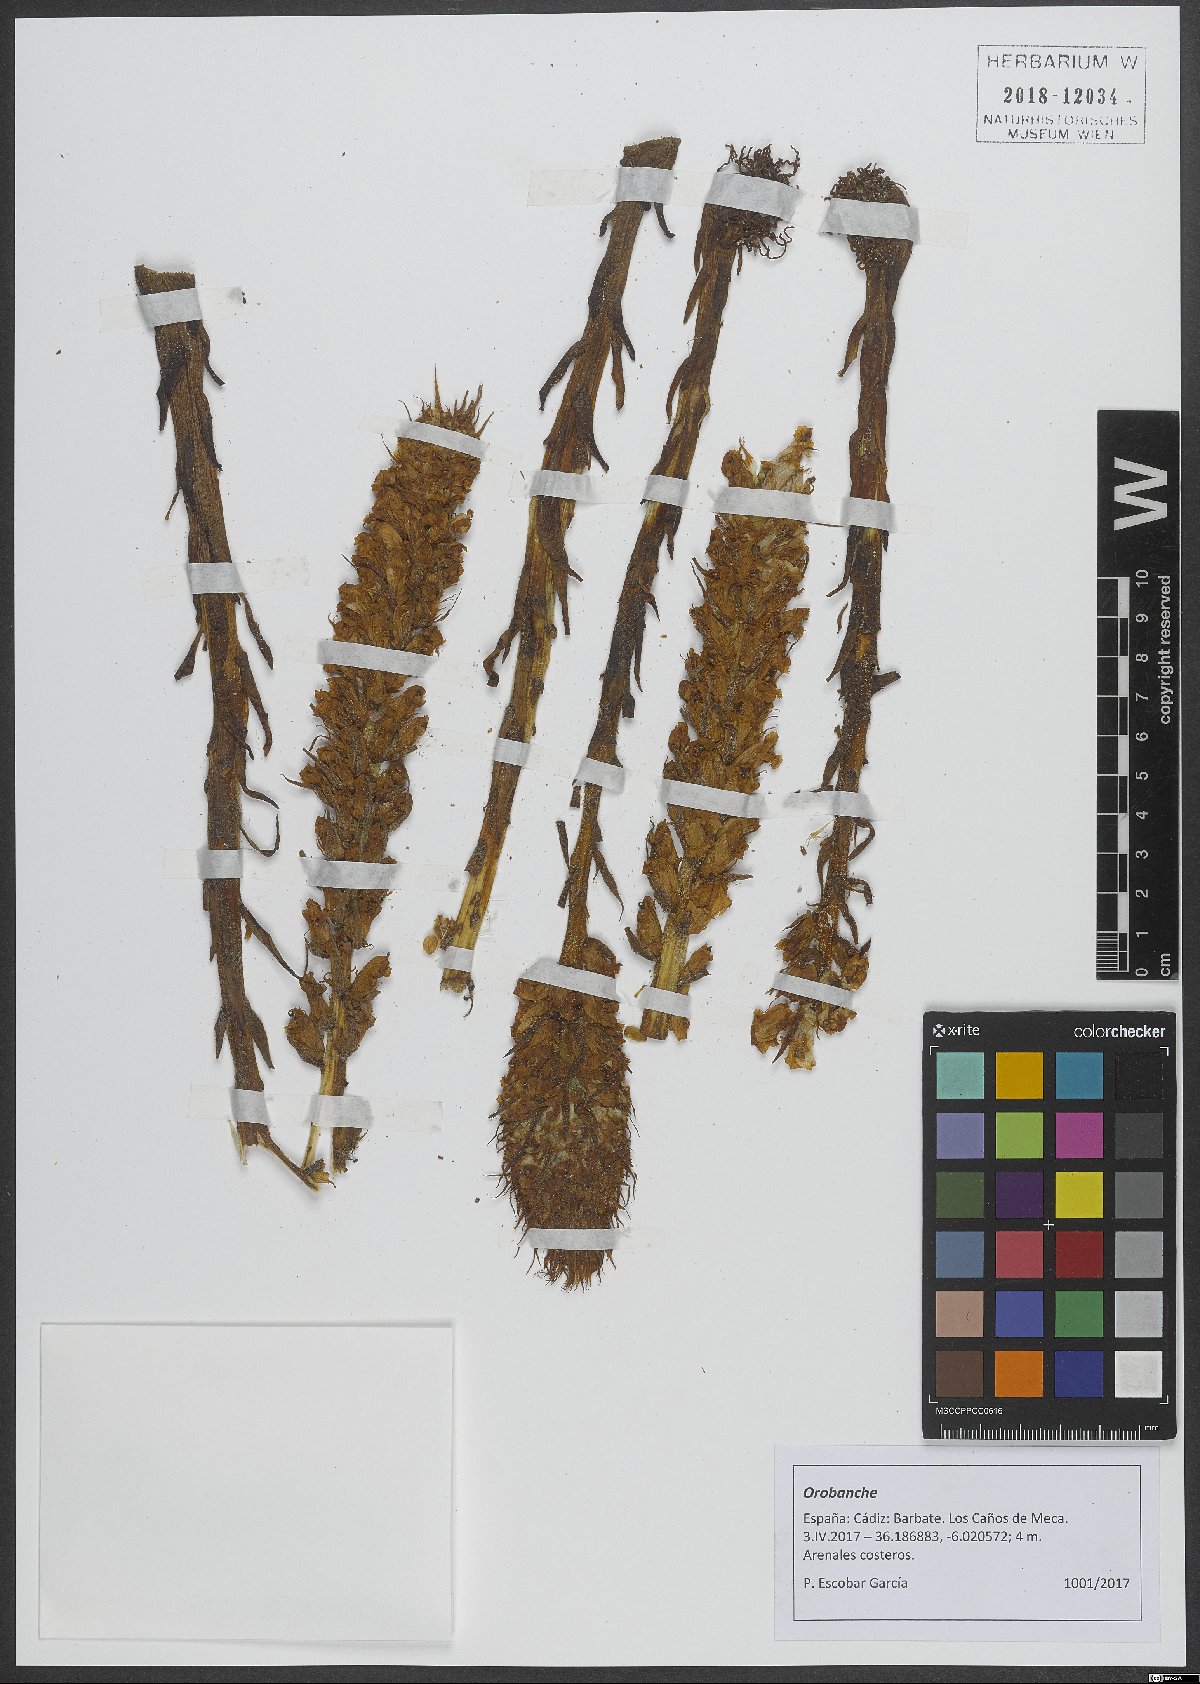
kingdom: Plantae
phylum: Tracheophyta
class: Magnoliopsida
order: Lamiales
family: Orobanchaceae
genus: Orobanche
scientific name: Orobanche
